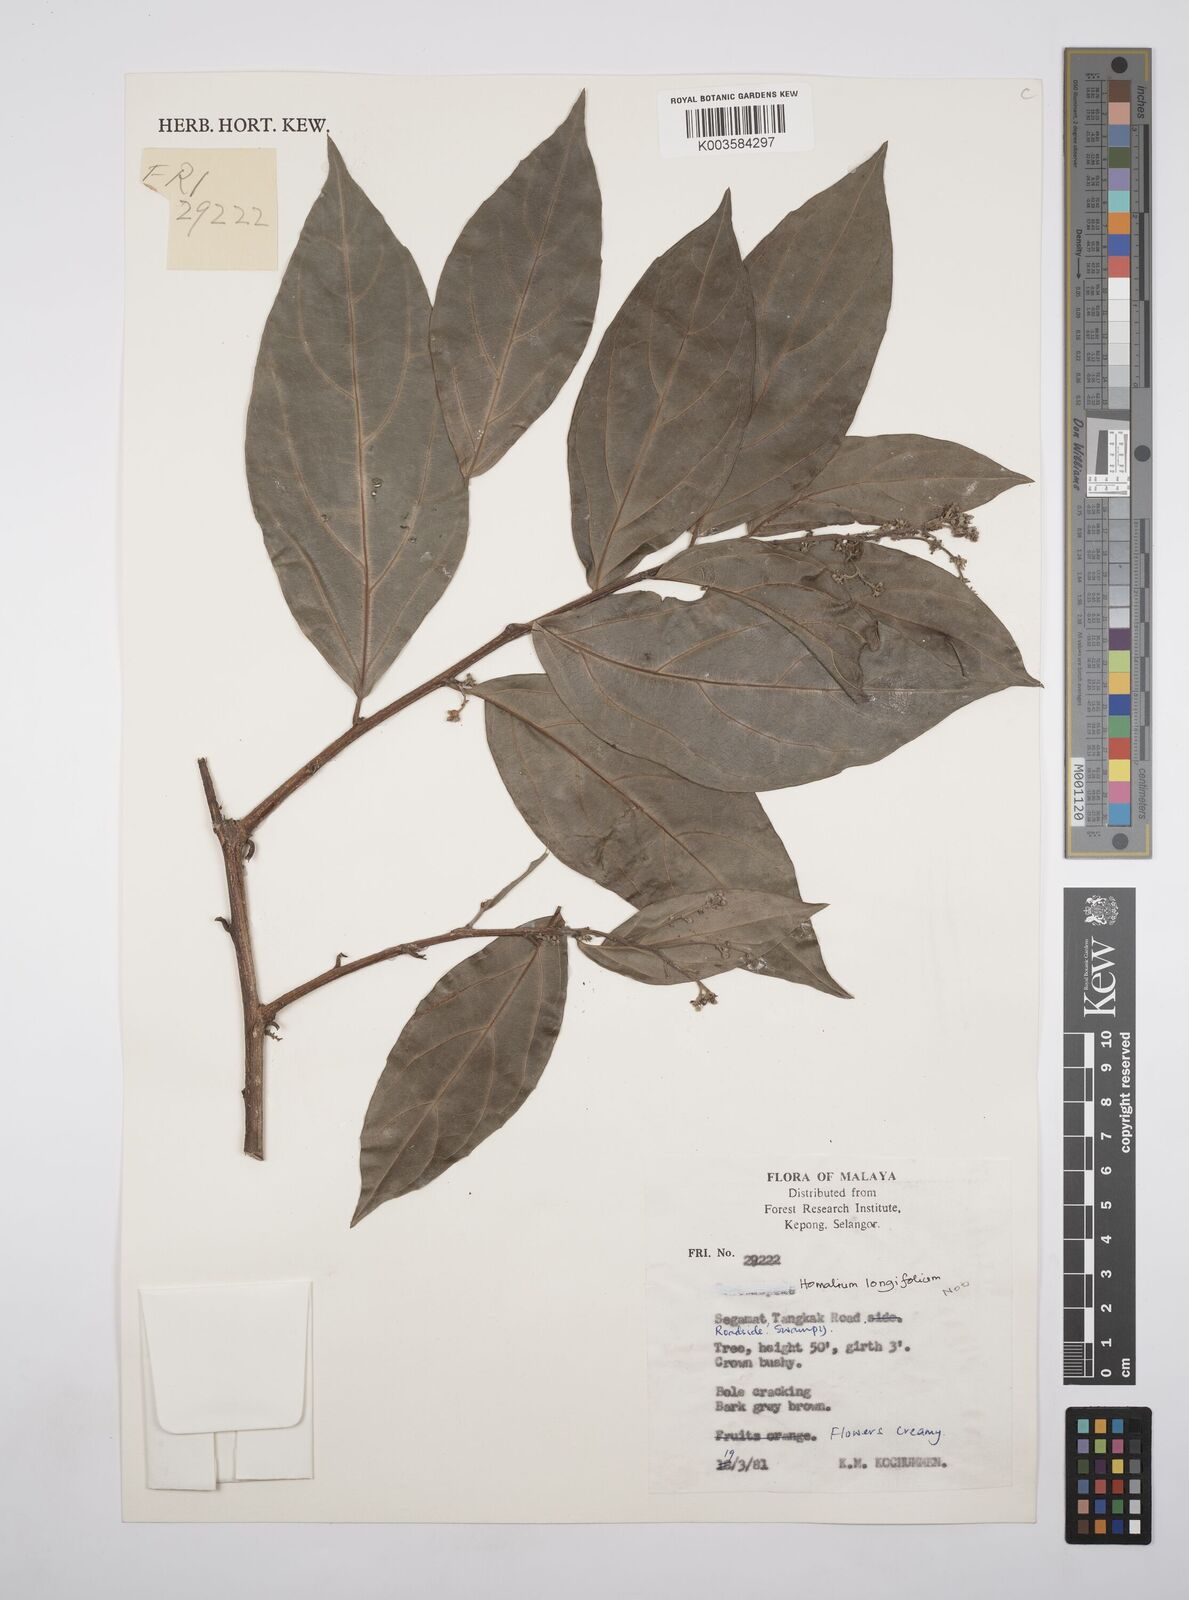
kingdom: Plantae
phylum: Tracheophyta
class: Magnoliopsida
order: Malpighiales
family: Salicaceae
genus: Homalium
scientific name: Homalium
